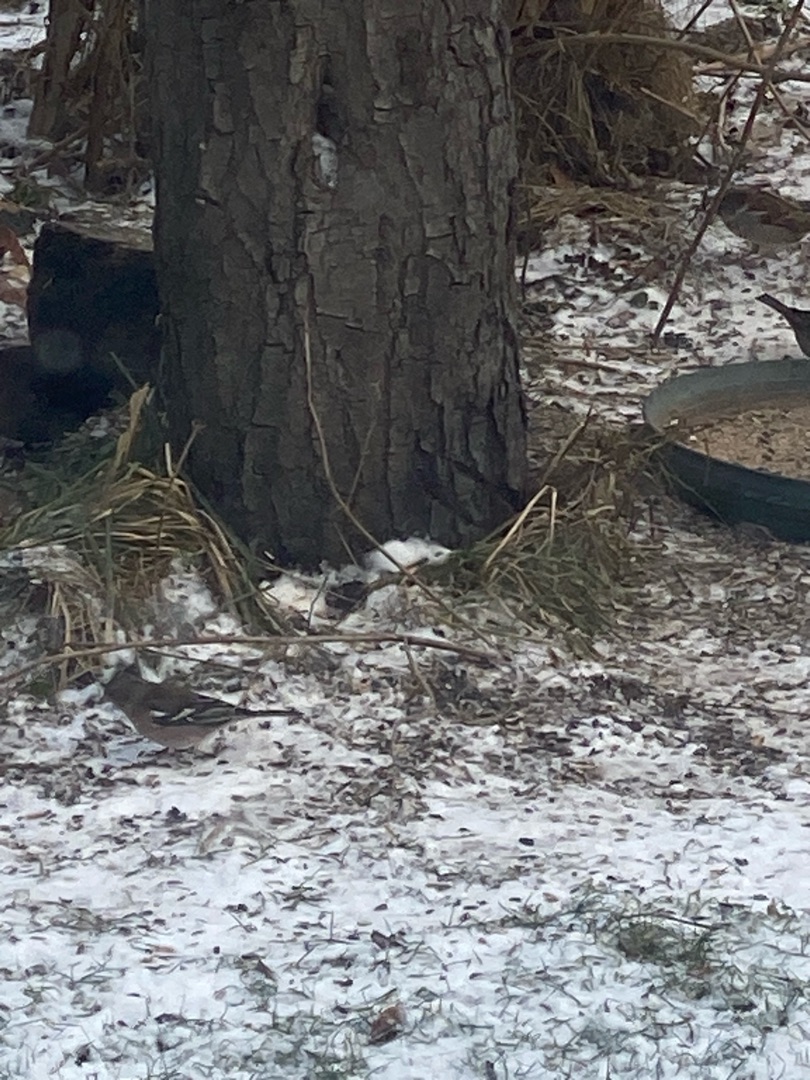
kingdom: Animalia
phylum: Chordata
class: Aves
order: Passeriformes
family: Fringillidae
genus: Fringilla
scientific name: Fringilla coelebs
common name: Bogfinke
